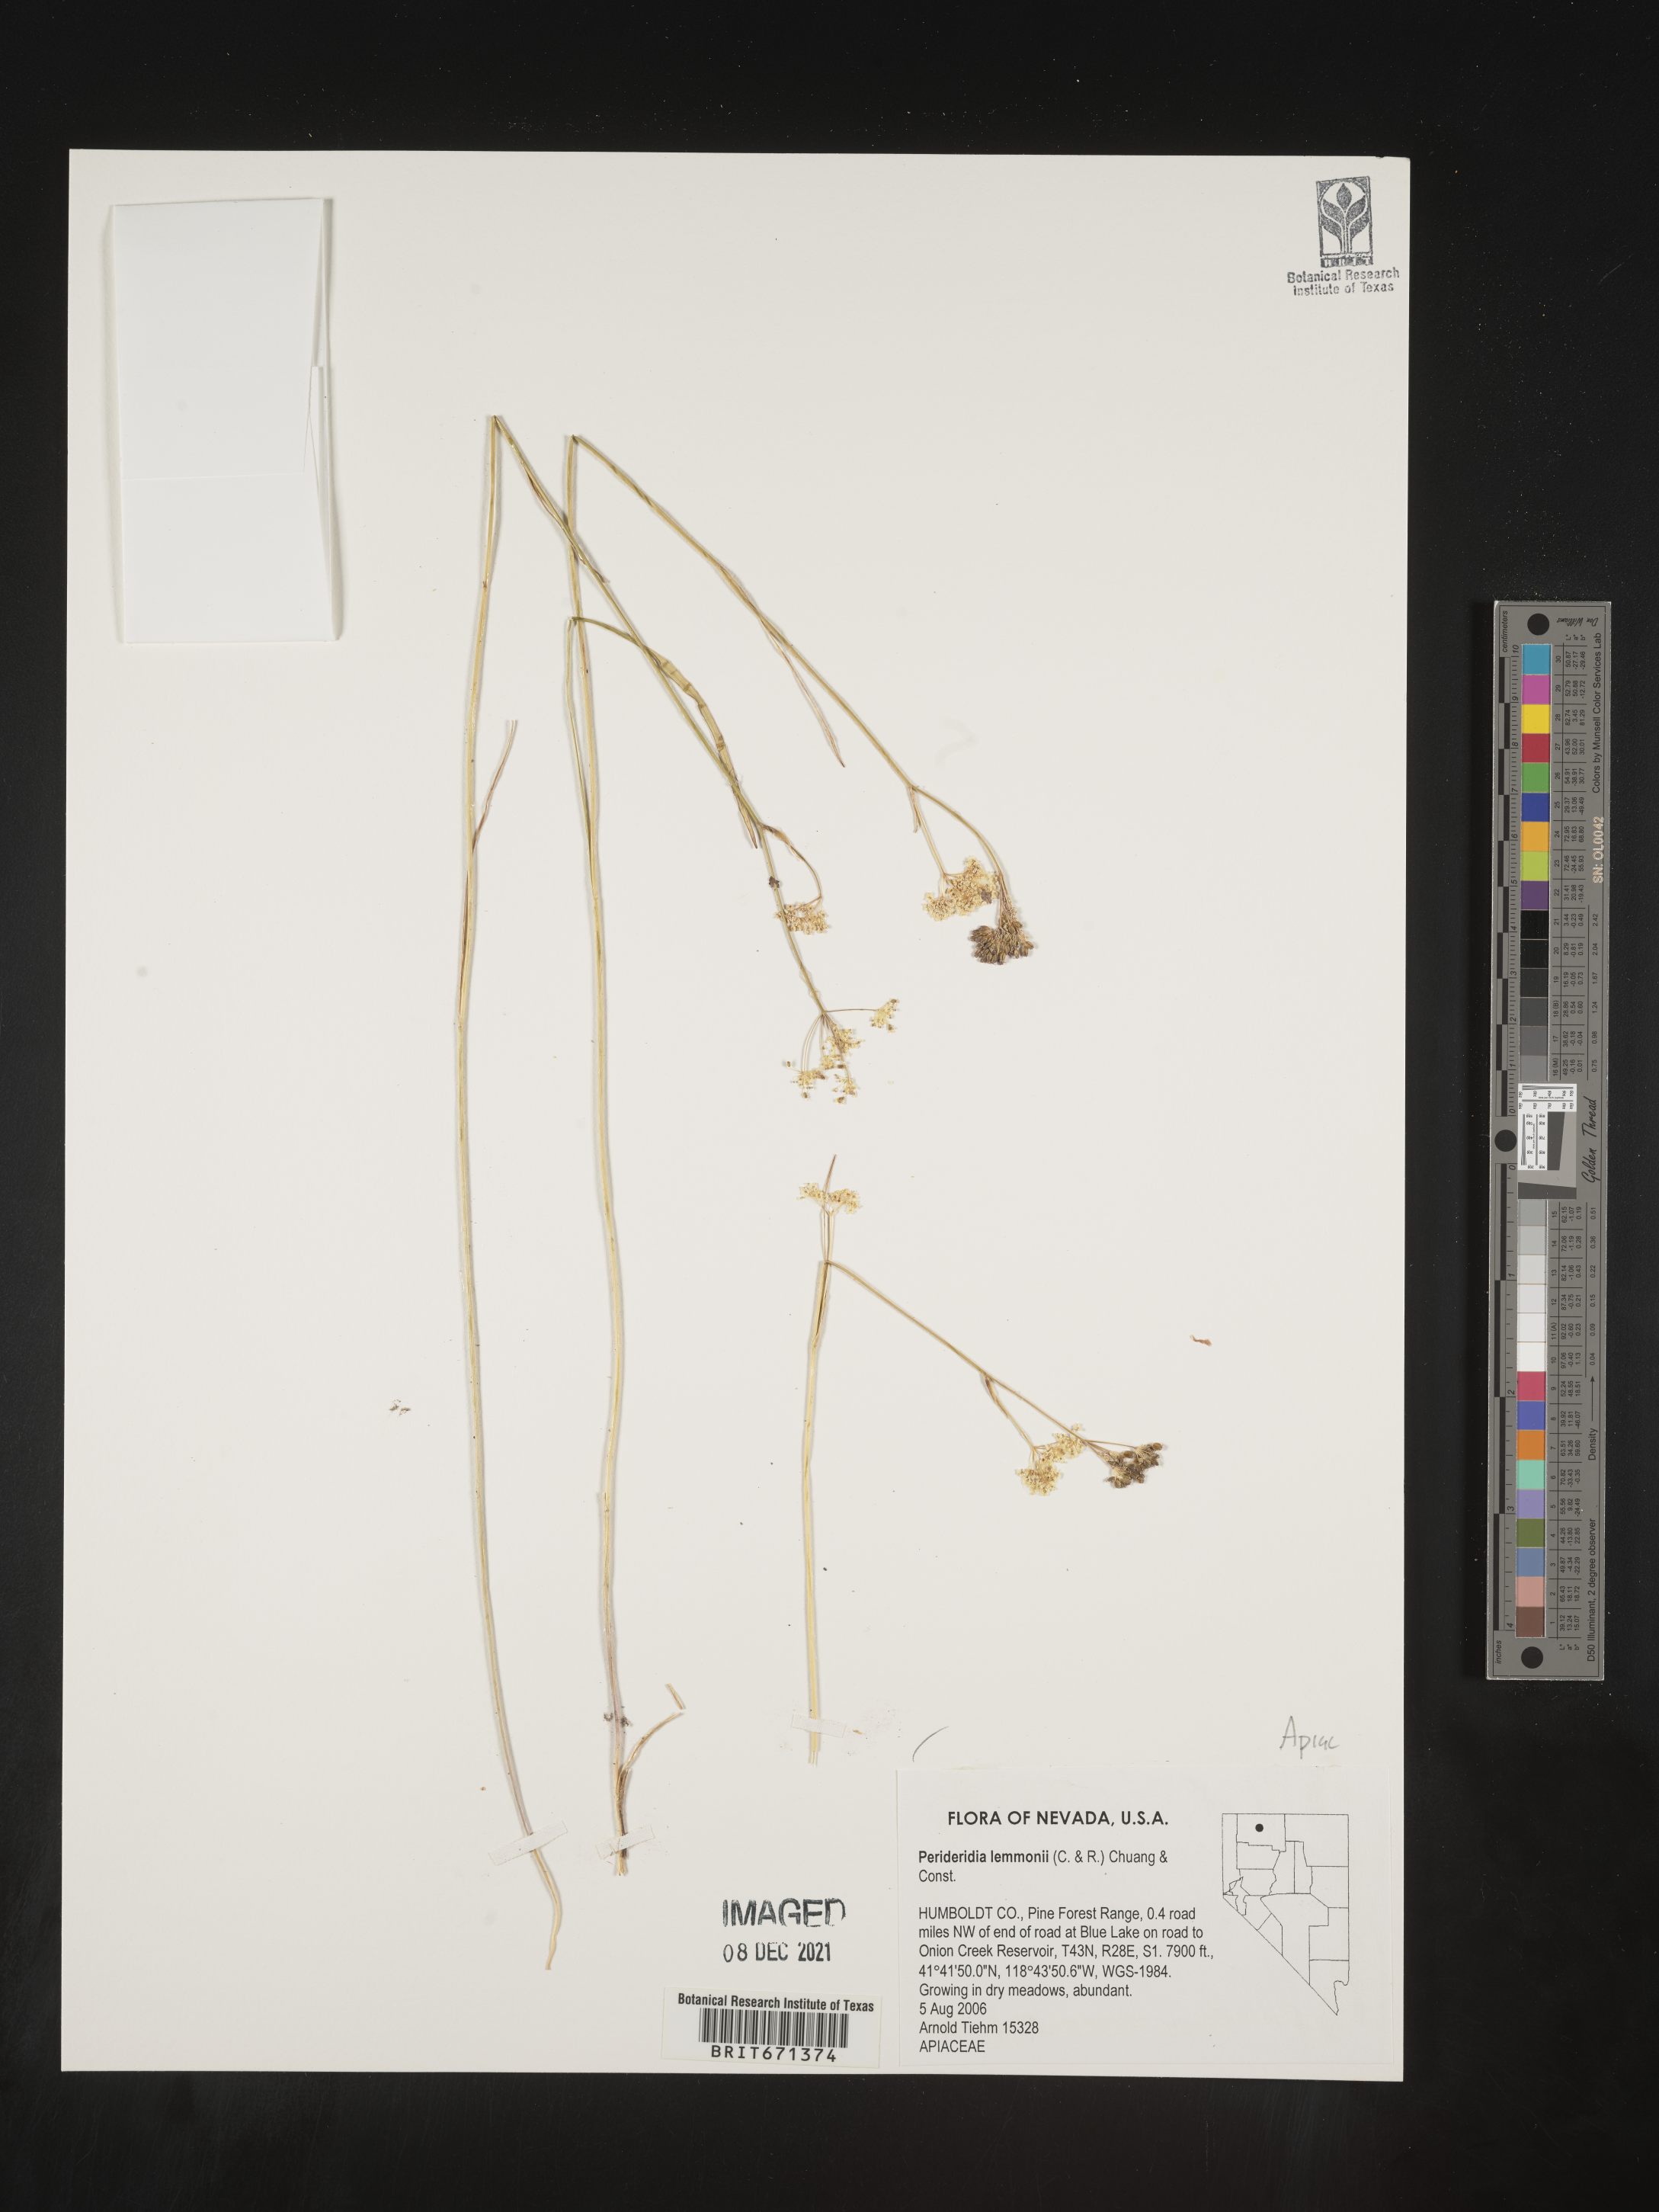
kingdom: Plantae
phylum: Tracheophyta
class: Magnoliopsida
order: Apiales
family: Apiaceae
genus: Perideridia
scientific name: Perideridia lemmonii
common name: Tuni
